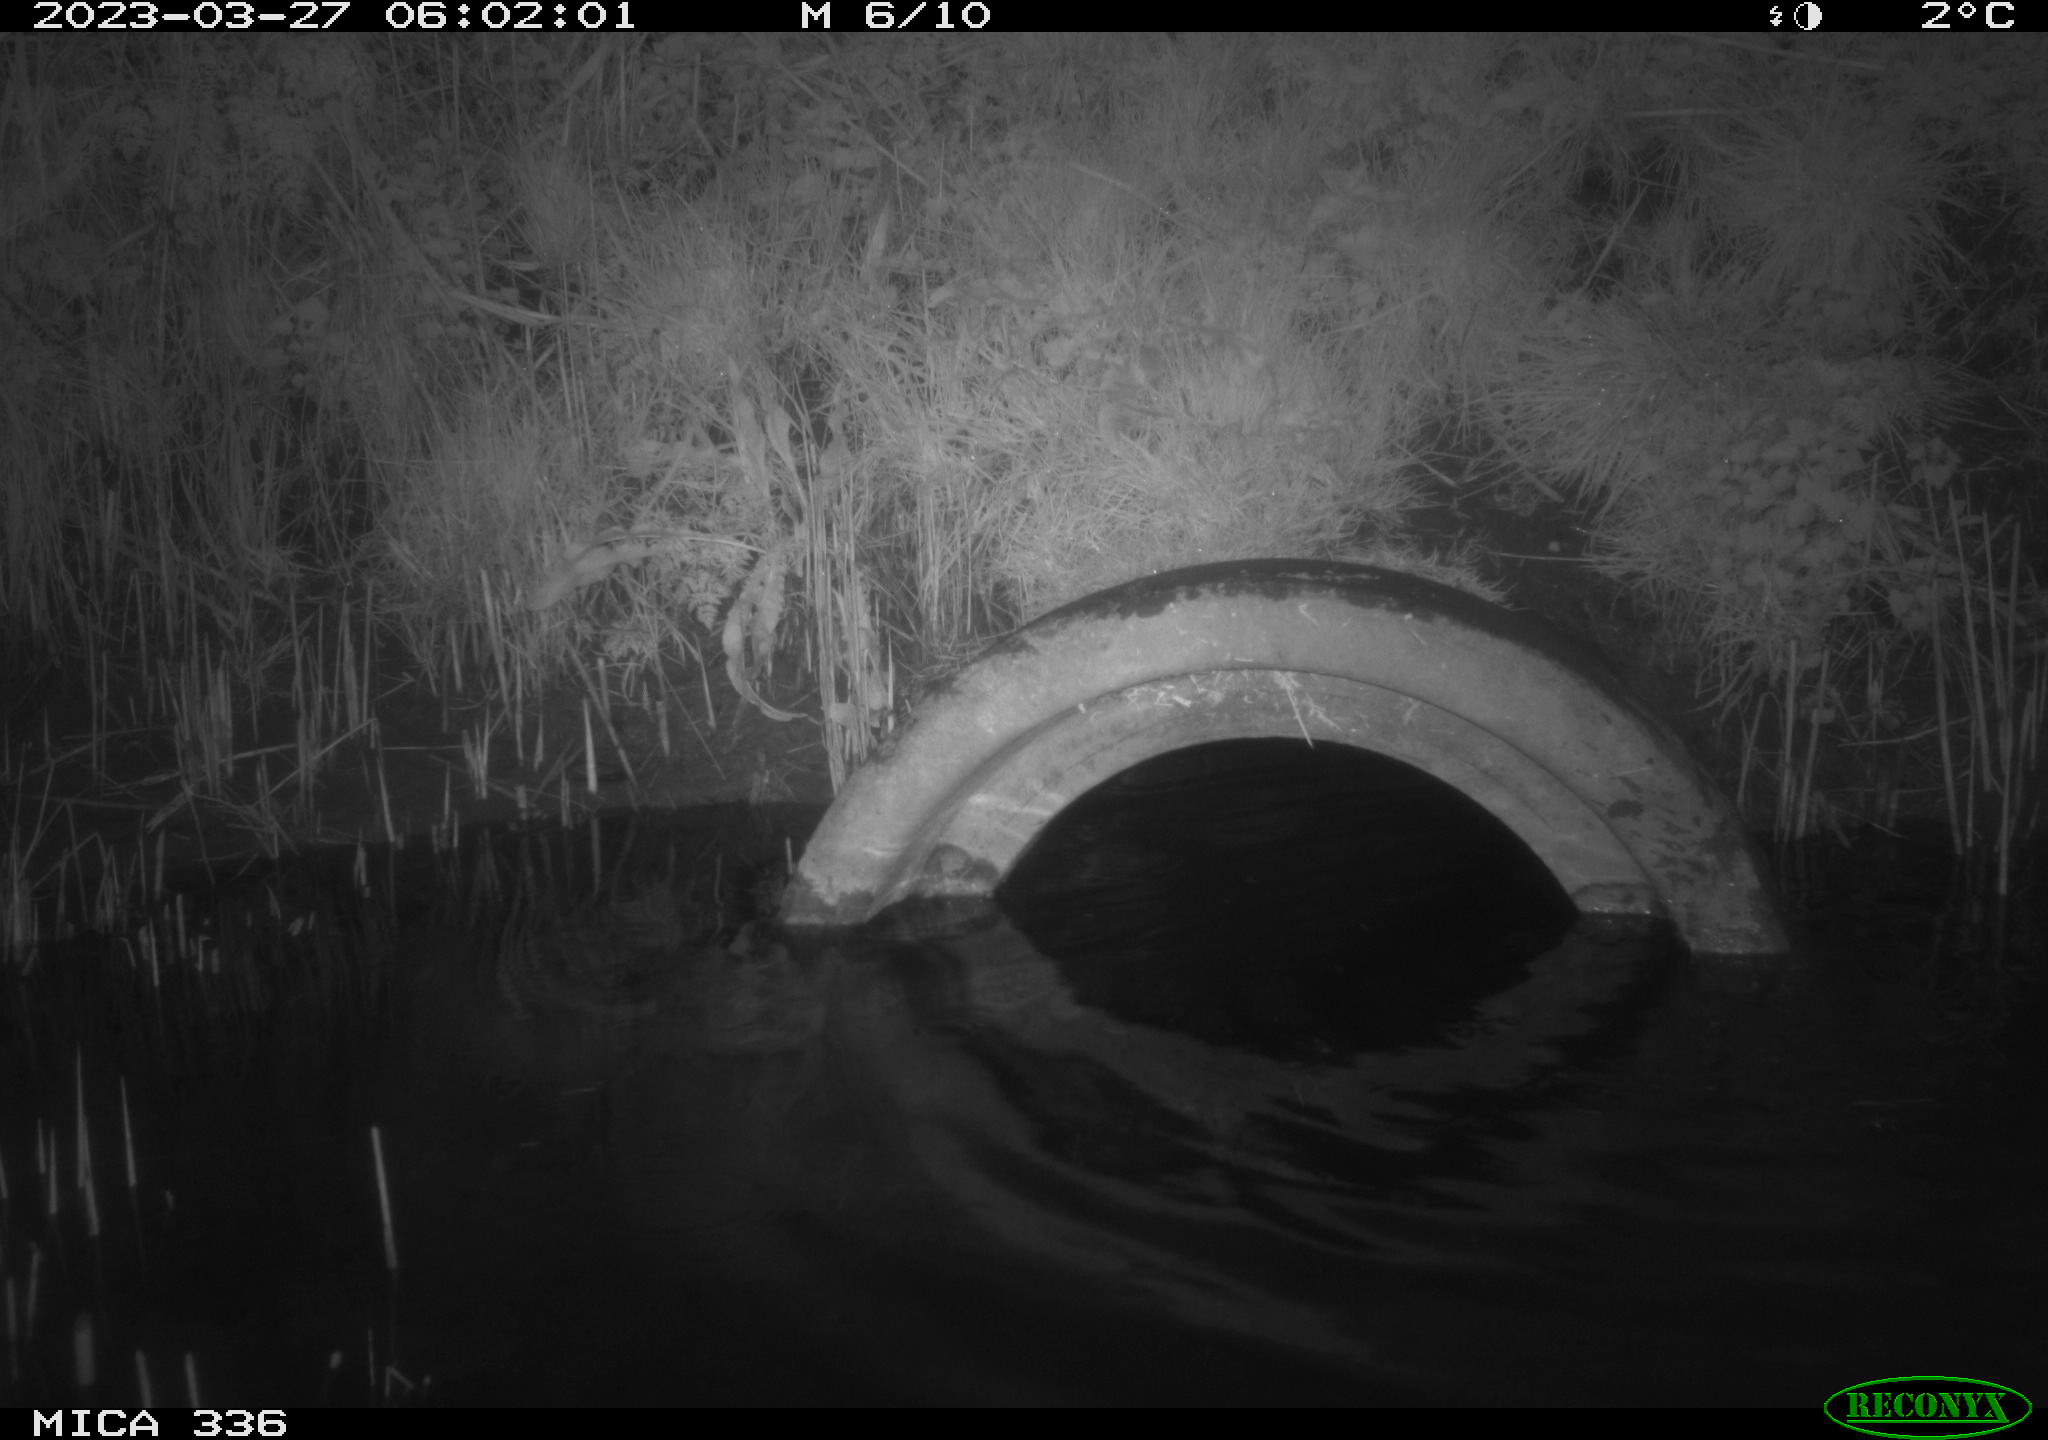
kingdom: Animalia
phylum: Chordata
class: Aves
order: Pelecaniformes
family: Ardeidae
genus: Ardea
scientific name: Ardea cinerea
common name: Grey heron
